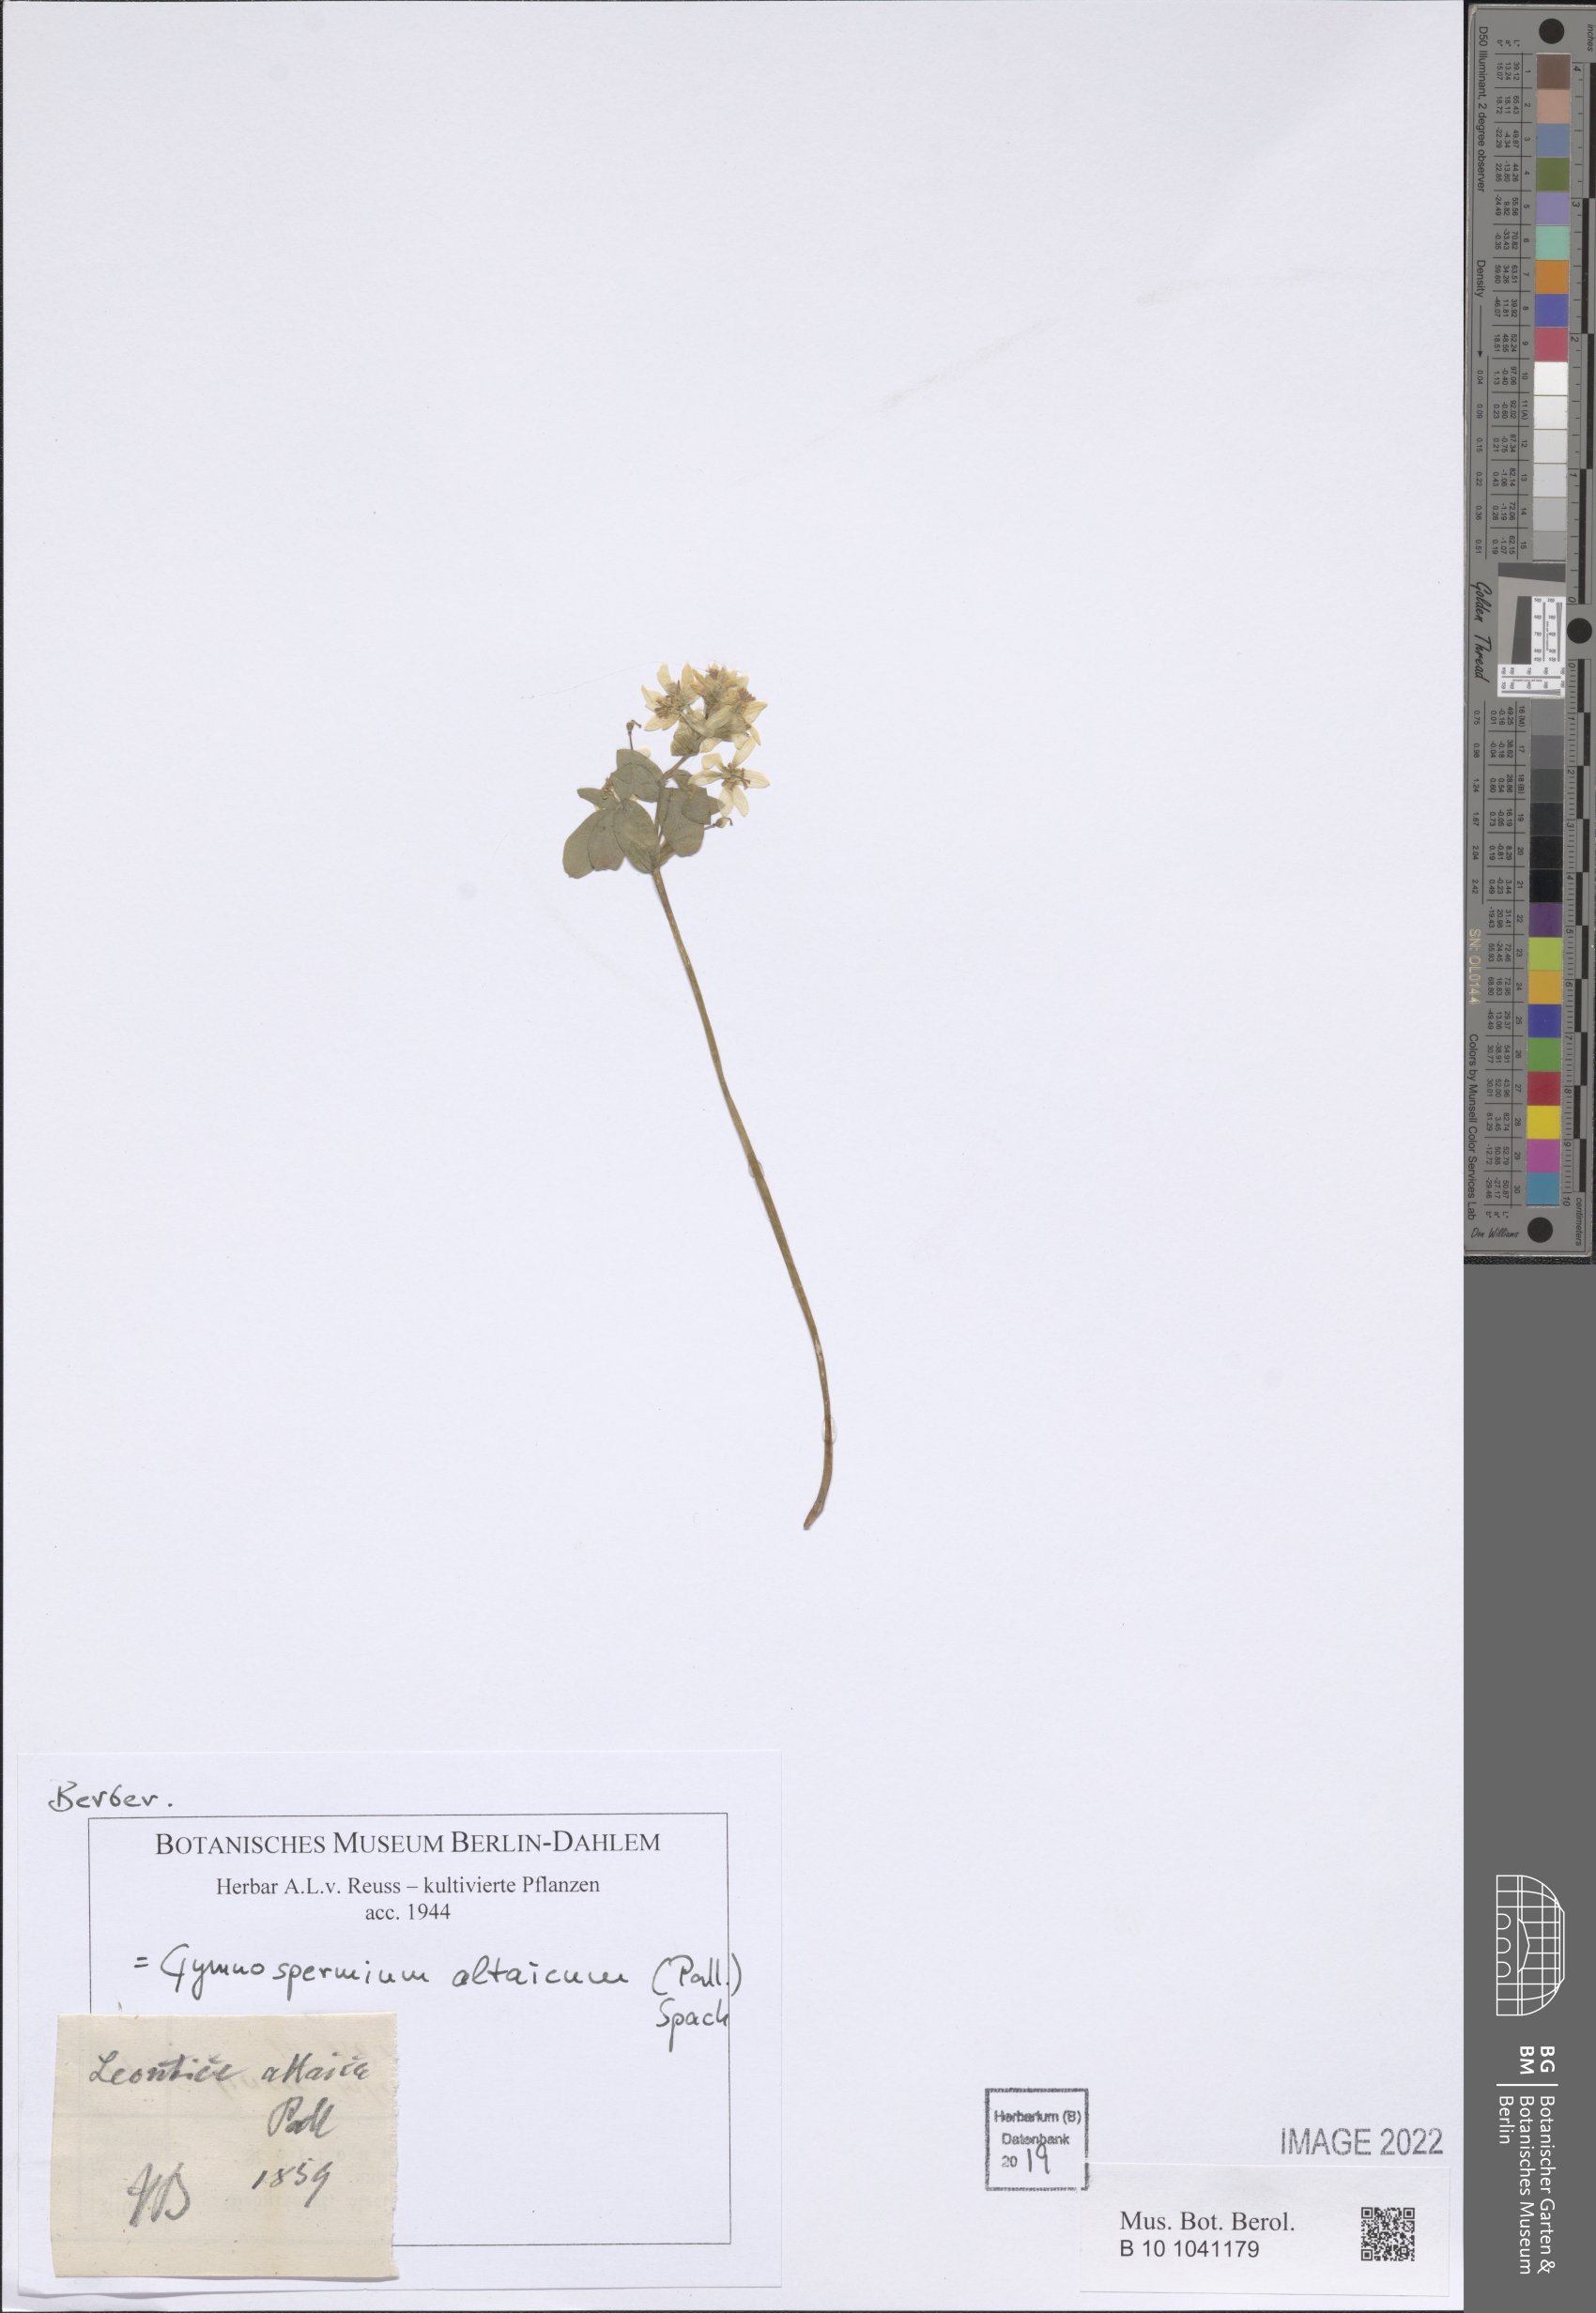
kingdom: Plantae
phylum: Tracheophyta
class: Magnoliopsida
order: Ranunculales
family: Berberidaceae
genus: Gymnospermium
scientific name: Gymnospermium altaicum
